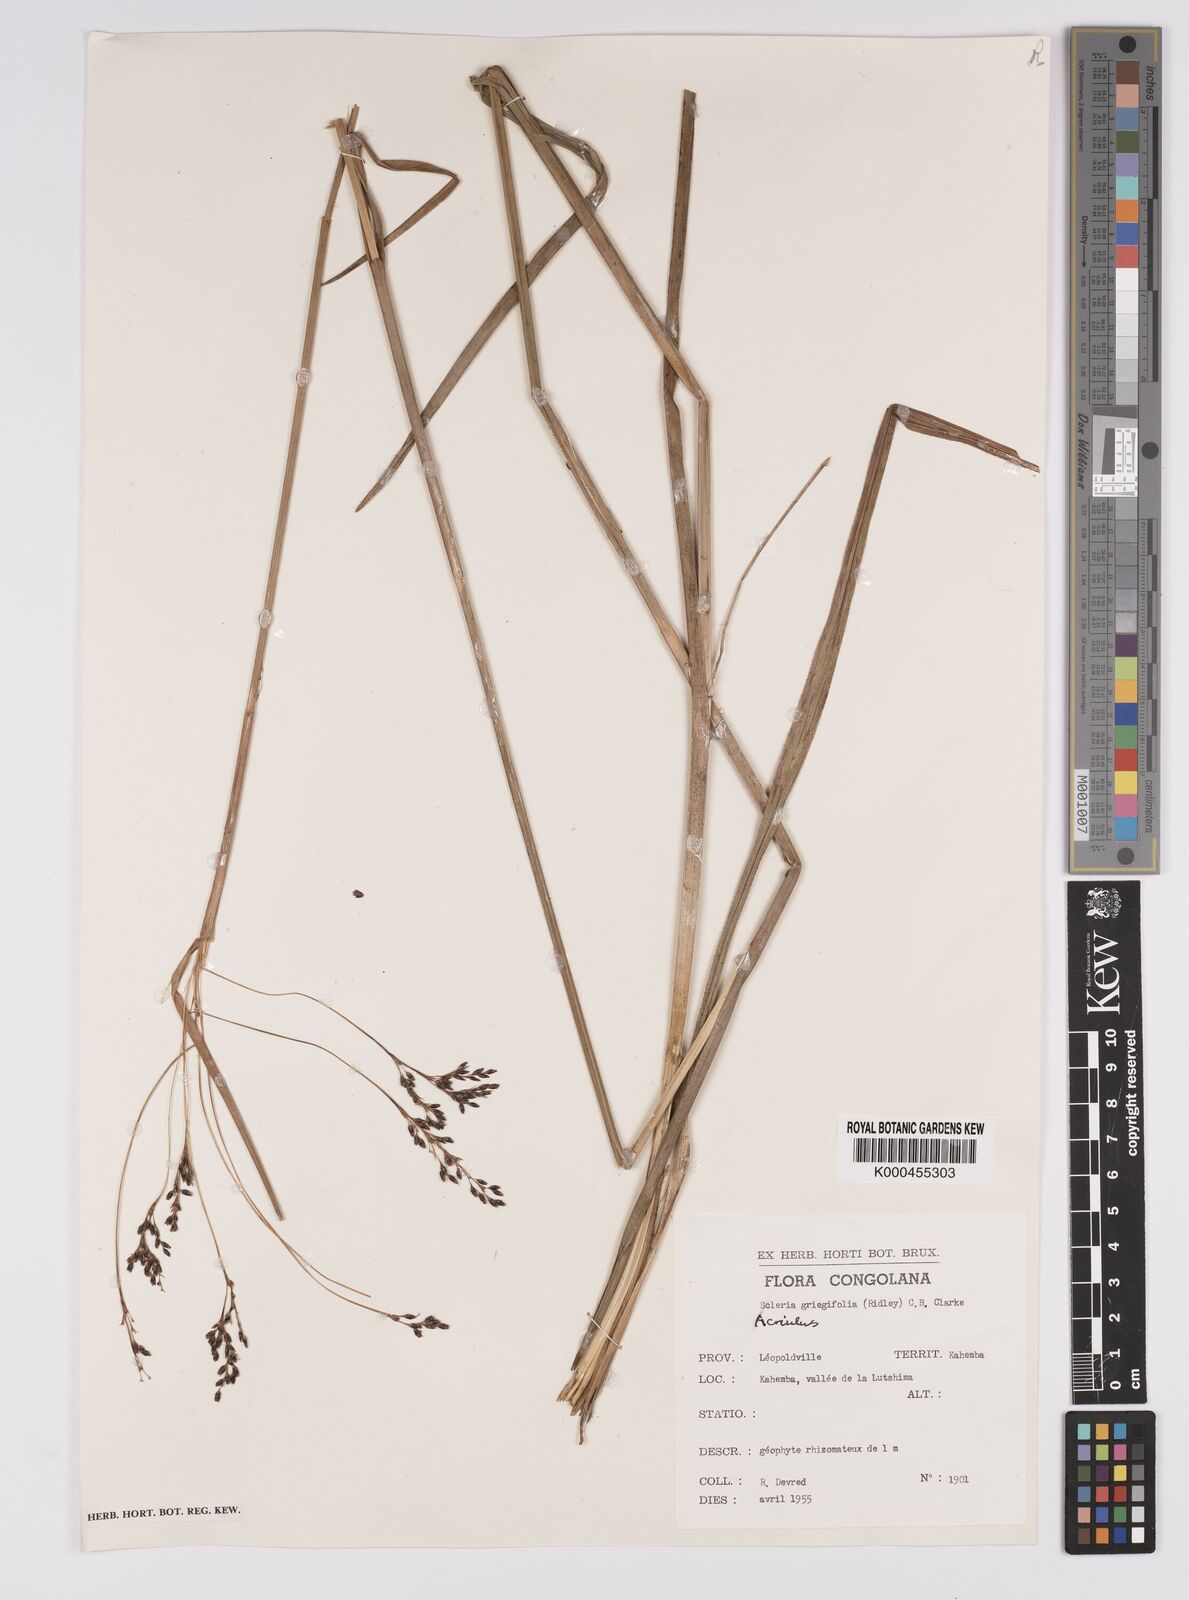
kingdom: Plantae
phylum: Tracheophyta
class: Liliopsida
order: Poales
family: Cyperaceae
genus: Scleria
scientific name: Scleria greigiifolia
